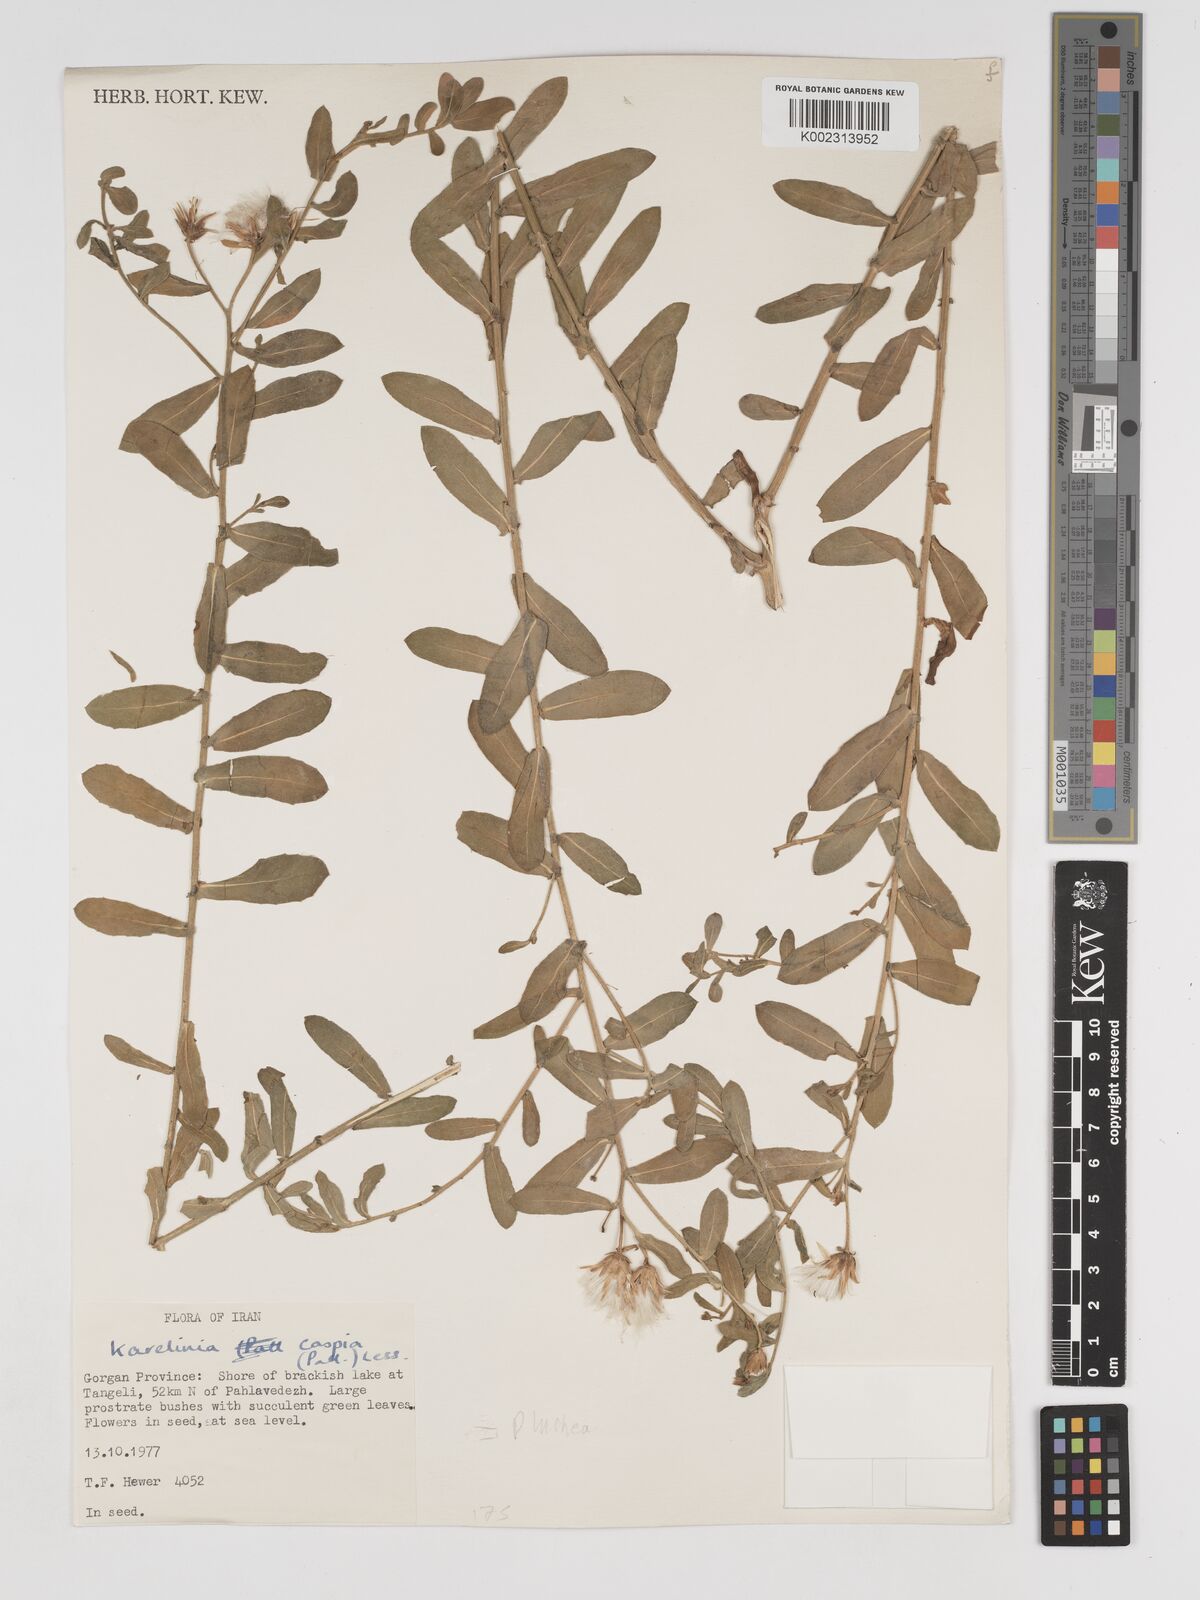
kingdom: Plantae
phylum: Tracheophyta
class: Magnoliopsida
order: Asterales
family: Asteraceae
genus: Karelinia
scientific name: Karelinia caspia
